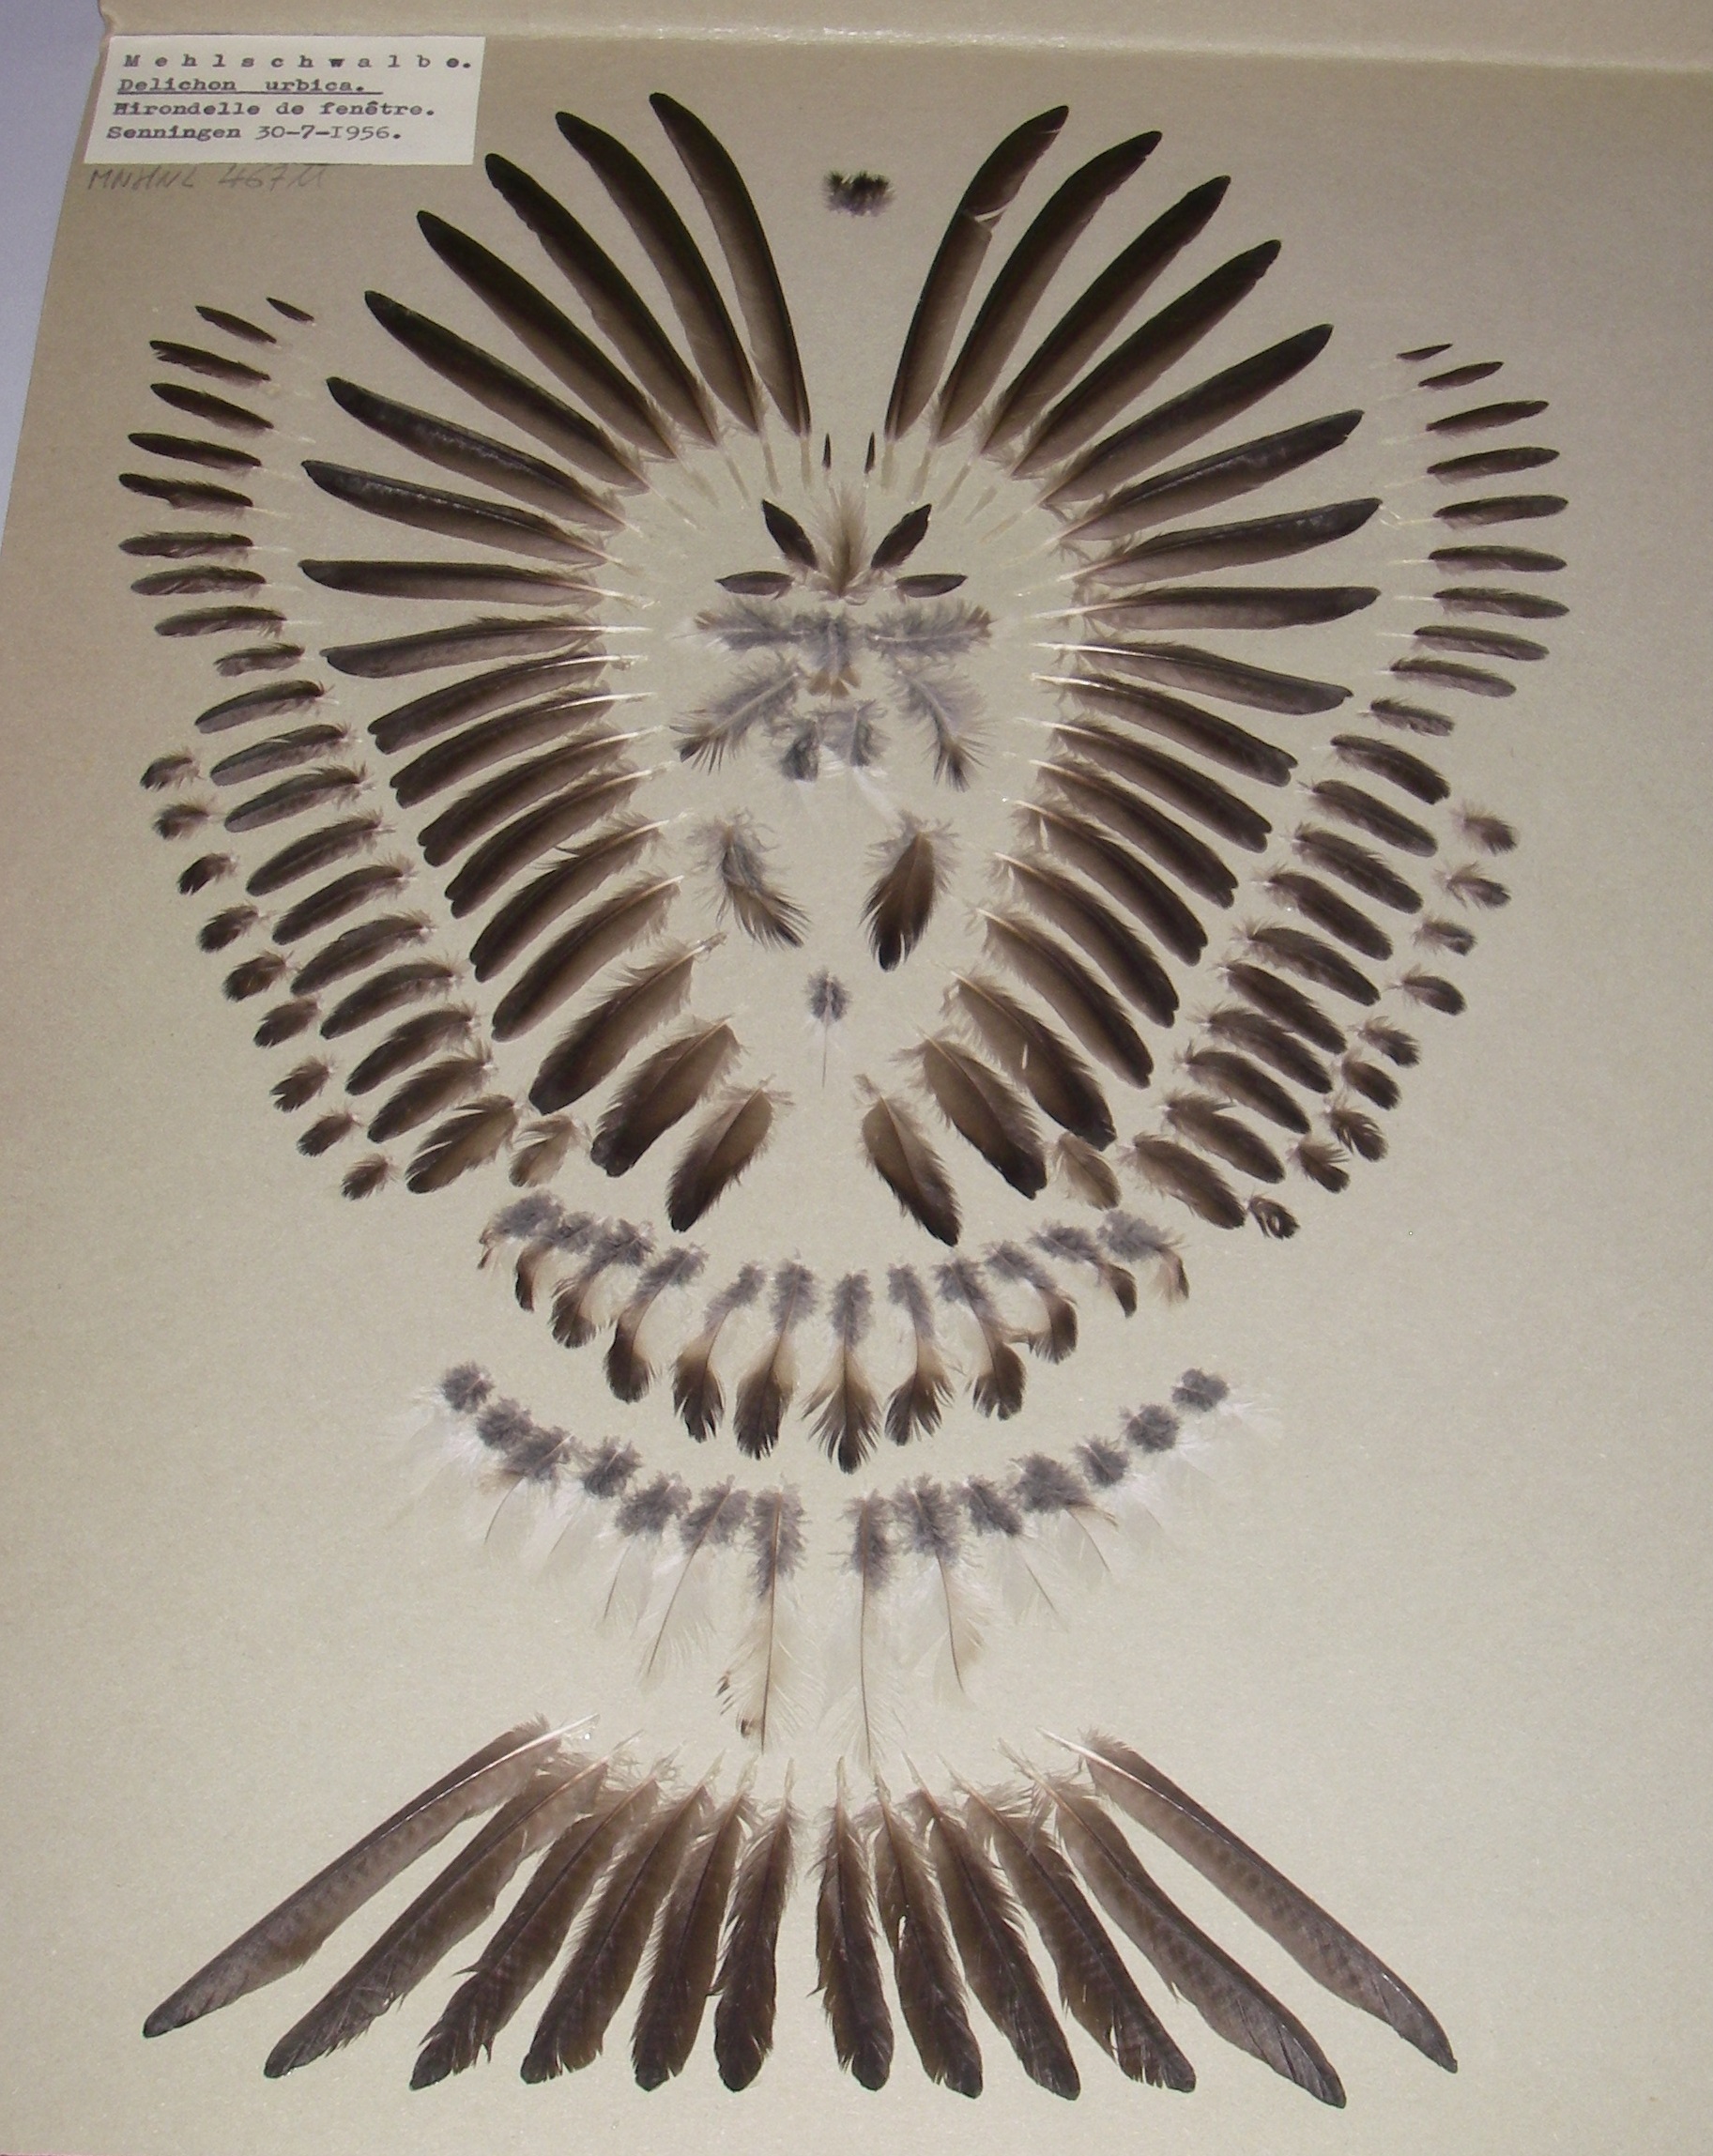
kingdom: Animalia
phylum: Chordata
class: Aves
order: Passeriformes
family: Hirundinidae
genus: Delichon
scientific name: Delichon urbicum
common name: Common house martin
